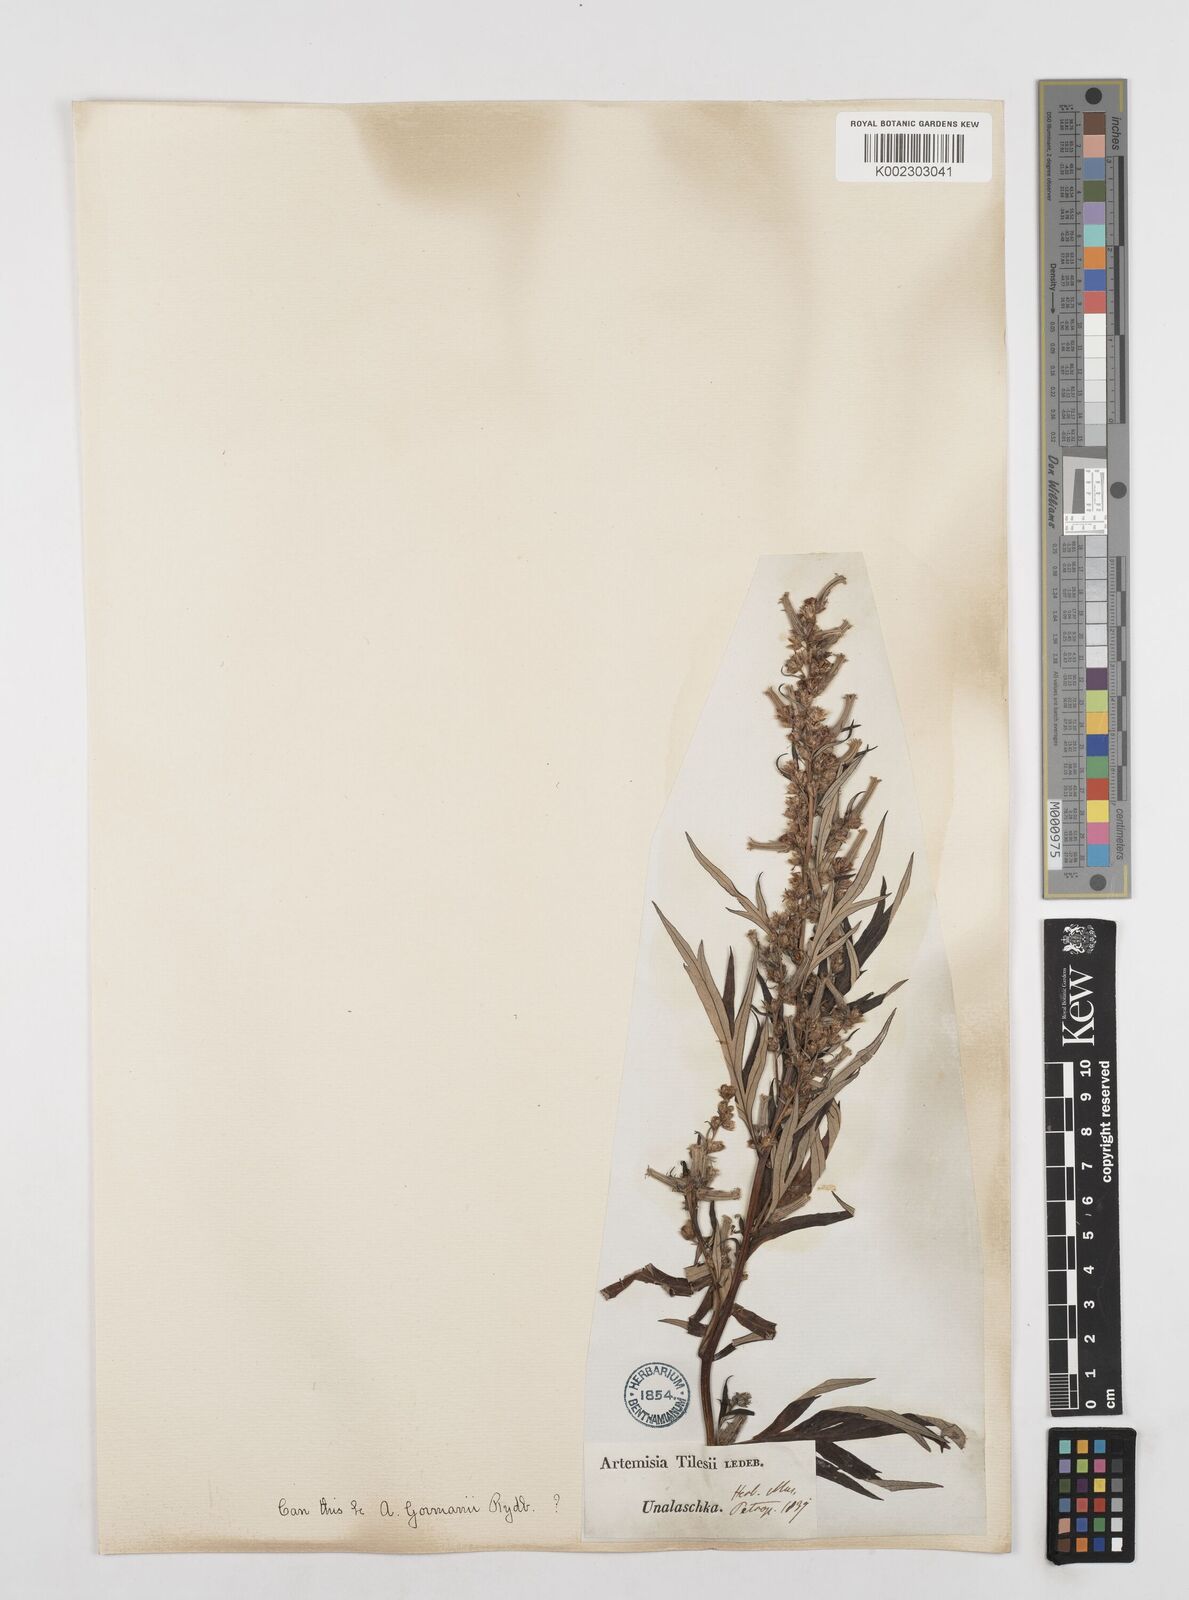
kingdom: Plantae
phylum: Tracheophyta
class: Magnoliopsida
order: Asterales
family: Asteraceae
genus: Artemisia
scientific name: Artemisia tilesii
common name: Aleutian mugwort
